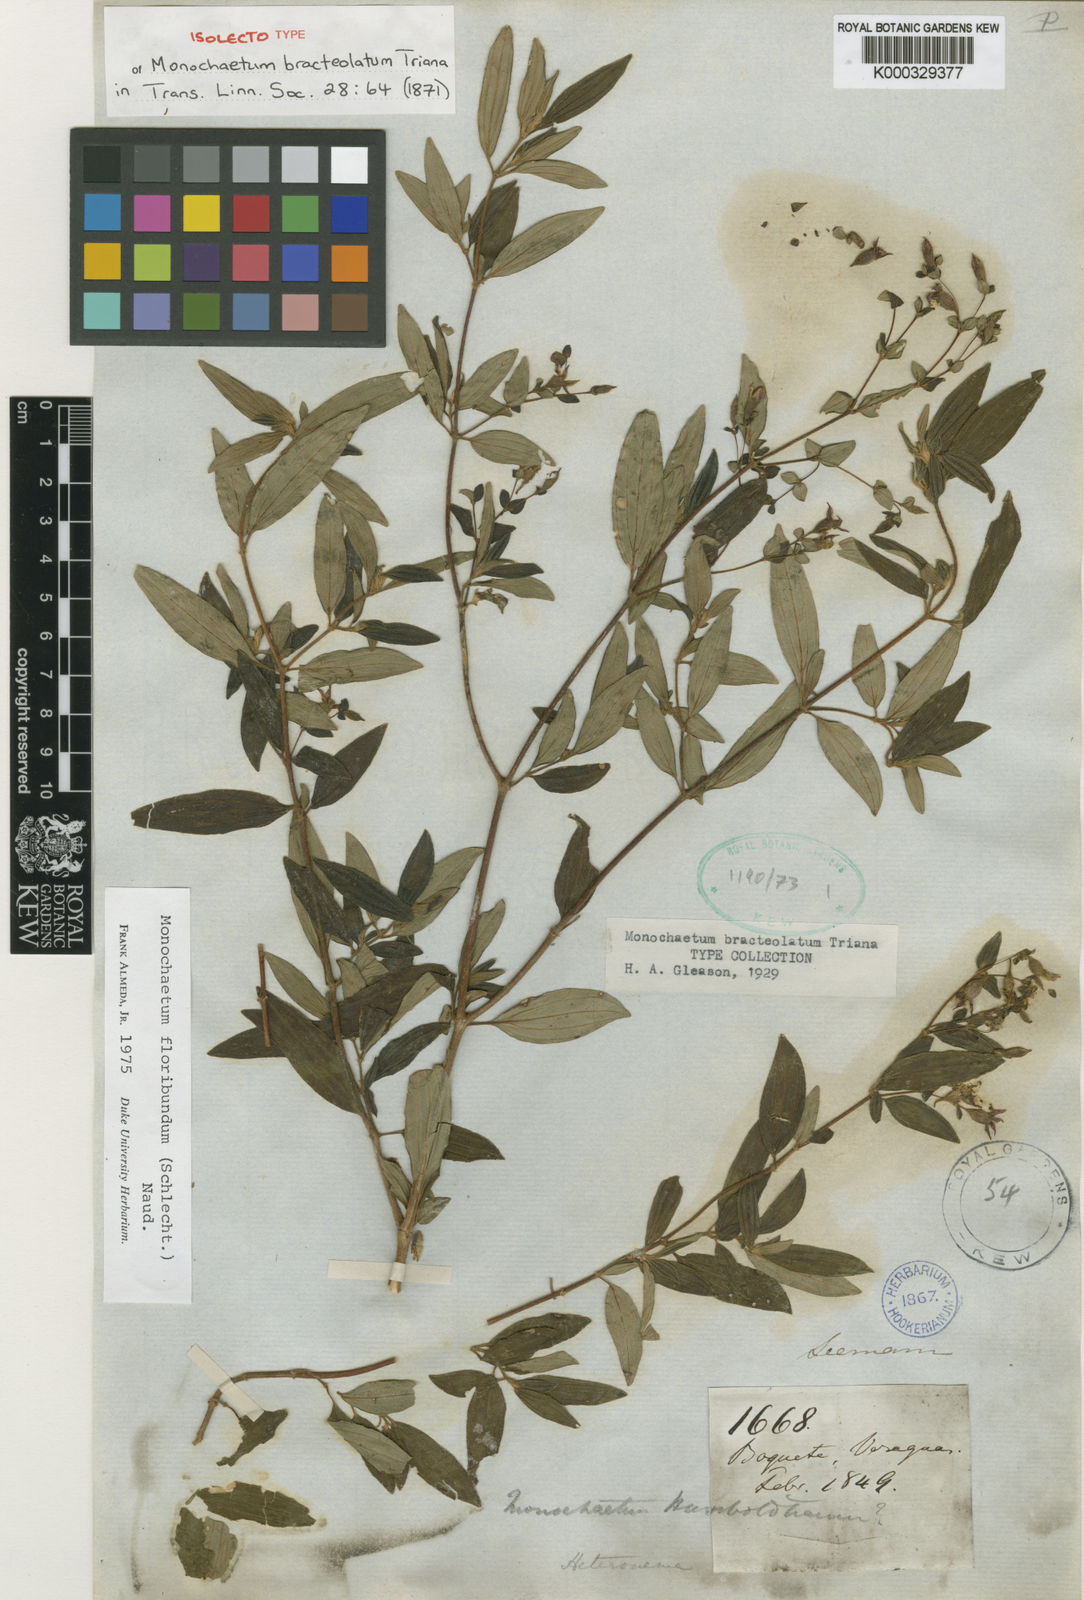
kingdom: Plantae
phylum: Tracheophyta
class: Magnoliopsida
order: Myrtales
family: Melastomataceae
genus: Monochaetum
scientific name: Monochaetum floribundum
